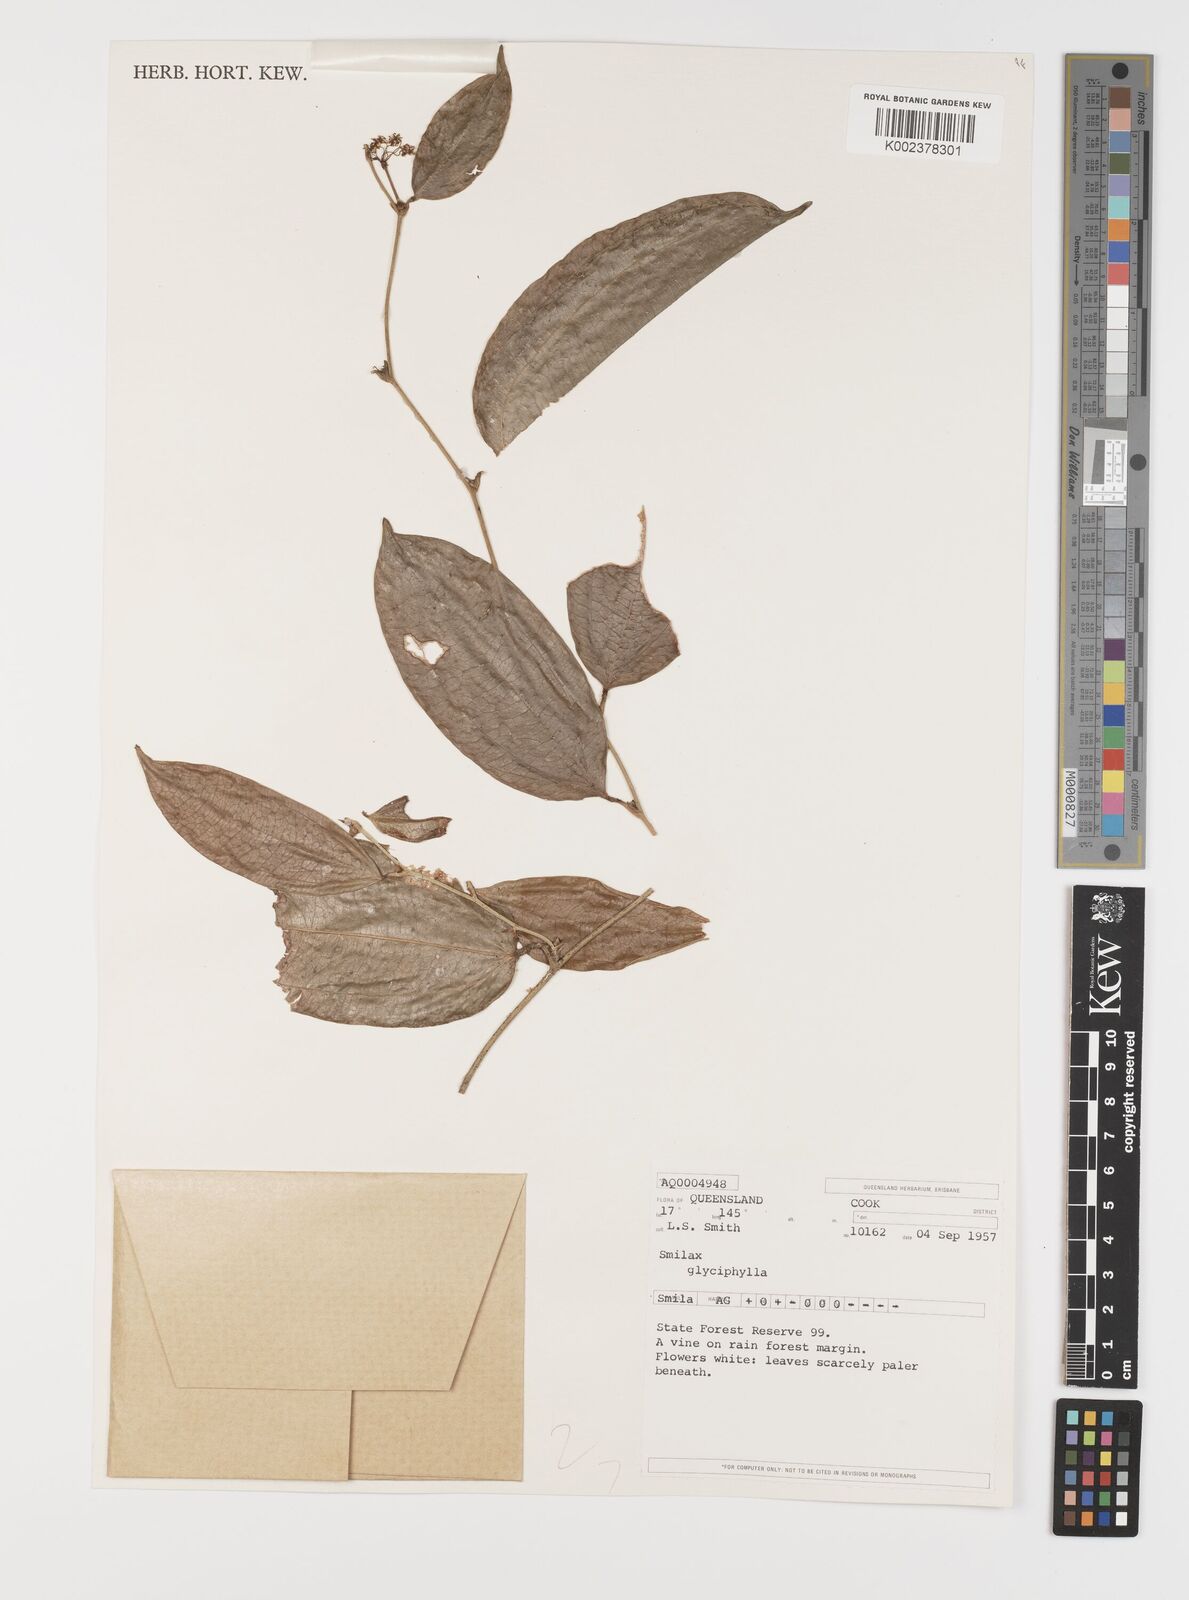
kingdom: Plantae
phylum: Tracheophyta
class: Liliopsida
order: Liliales
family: Smilacaceae
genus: Smilax
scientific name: Smilax glyciphylla
